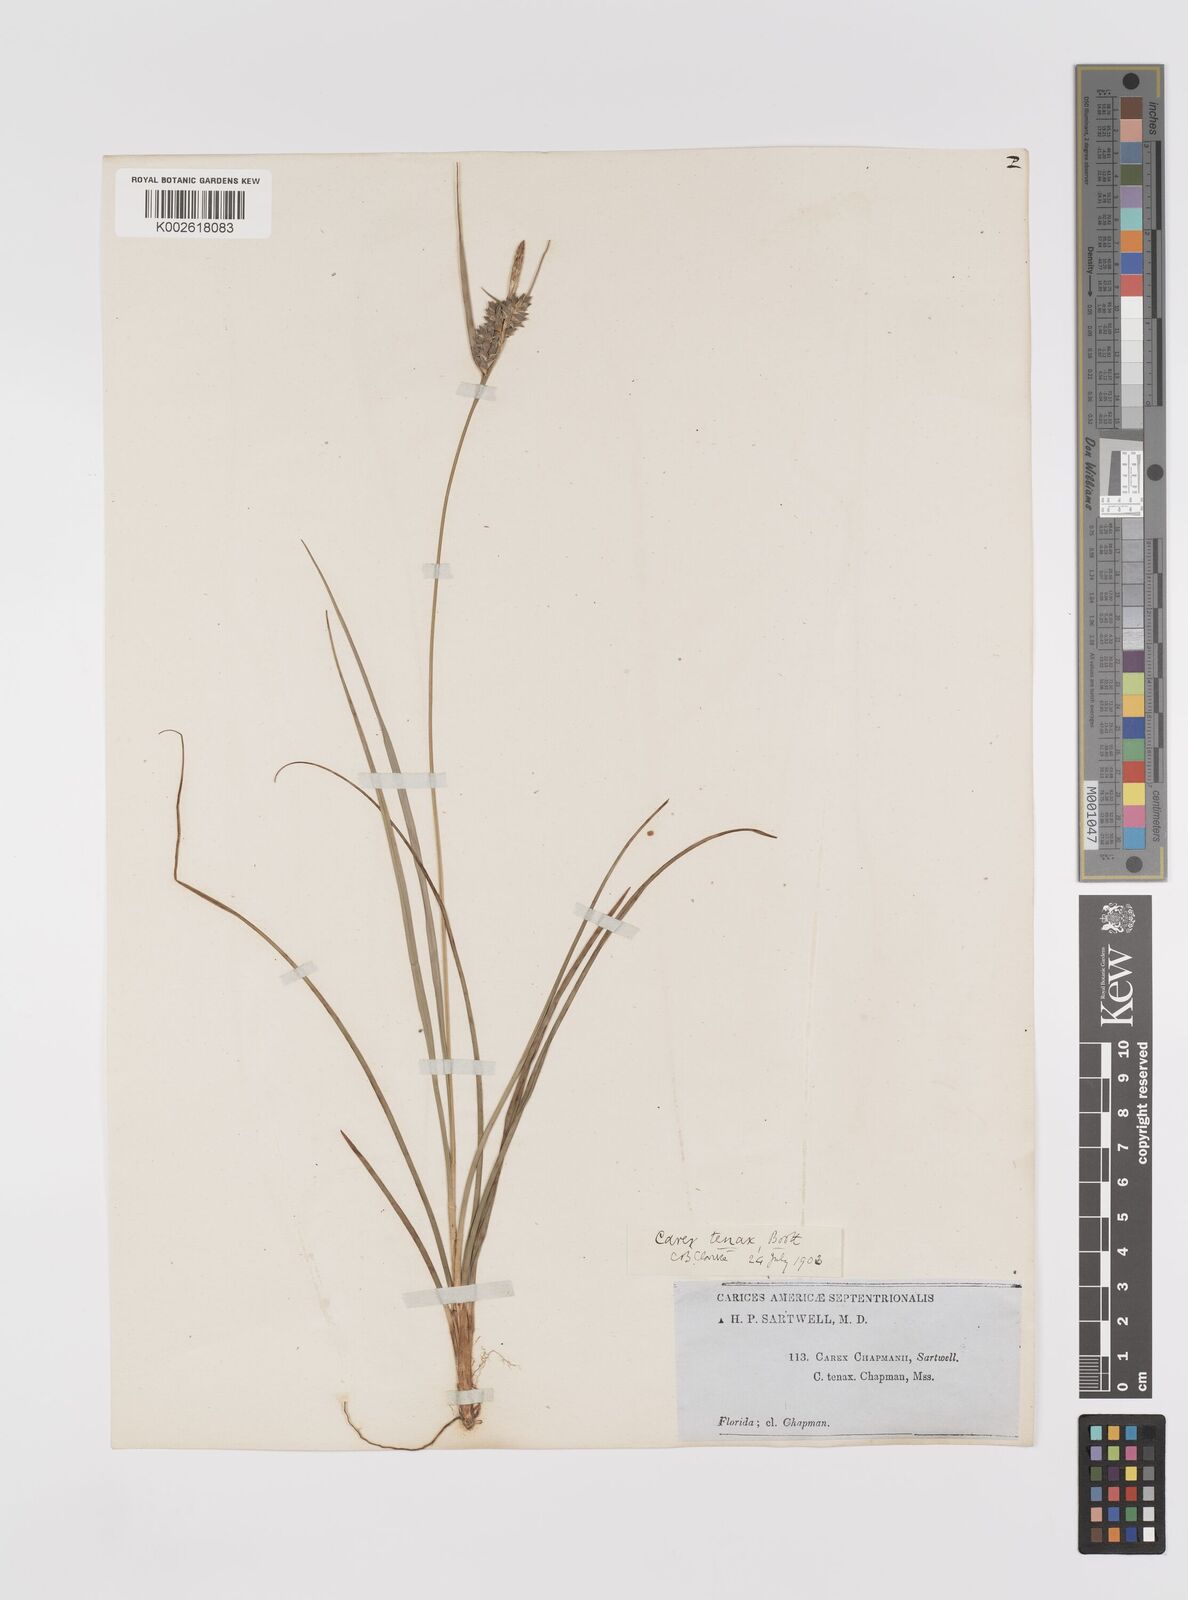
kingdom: Plantae
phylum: Tracheophyta
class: Liliopsida
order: Poales
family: Cyperaceae
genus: Carex
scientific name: Carex tenax
